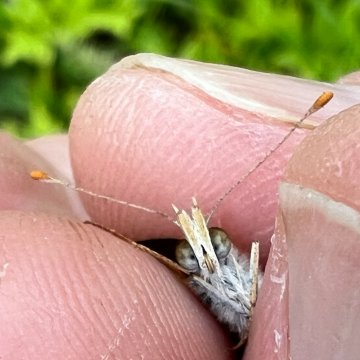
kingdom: Animalia
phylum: Arthropoda
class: Insecta
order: Lepidoptera
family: Nymphalidae
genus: Phyciodes
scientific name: Phyciodes tharos
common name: Northern Crescent
